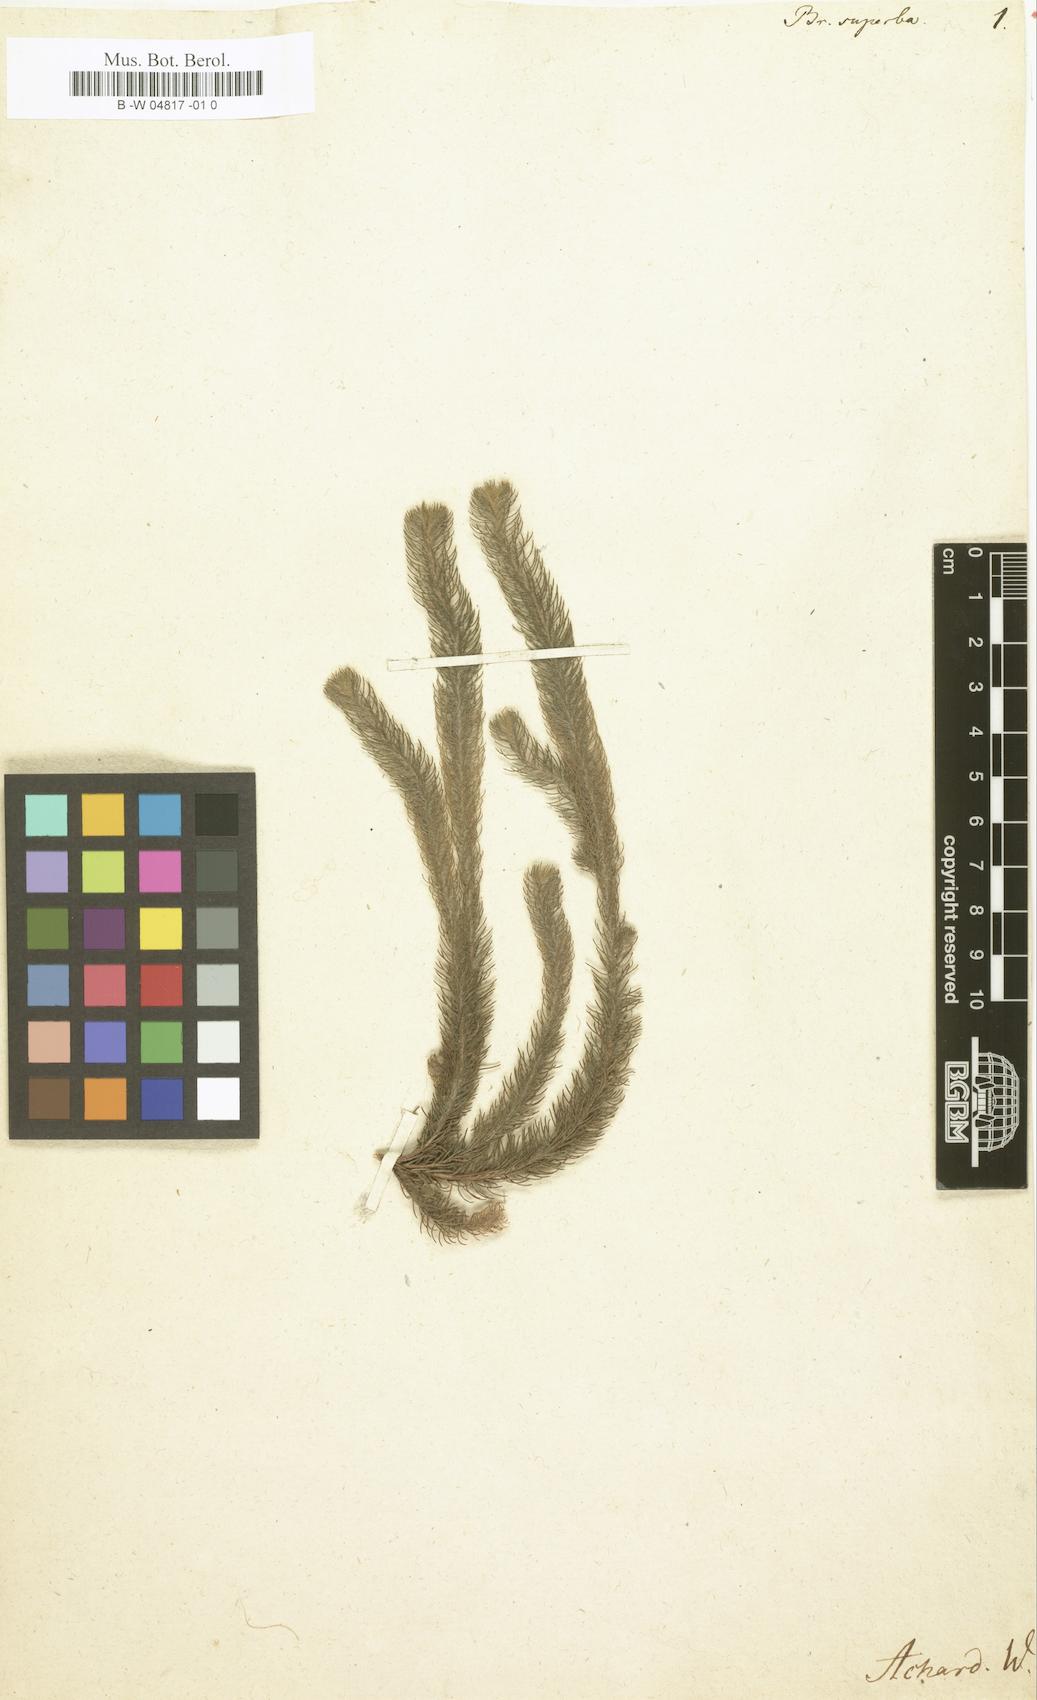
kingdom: Plantae
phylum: Tracheophyta
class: Magnoliopsida
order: Bruniales
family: Bruniaceae
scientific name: Bruniaceae
